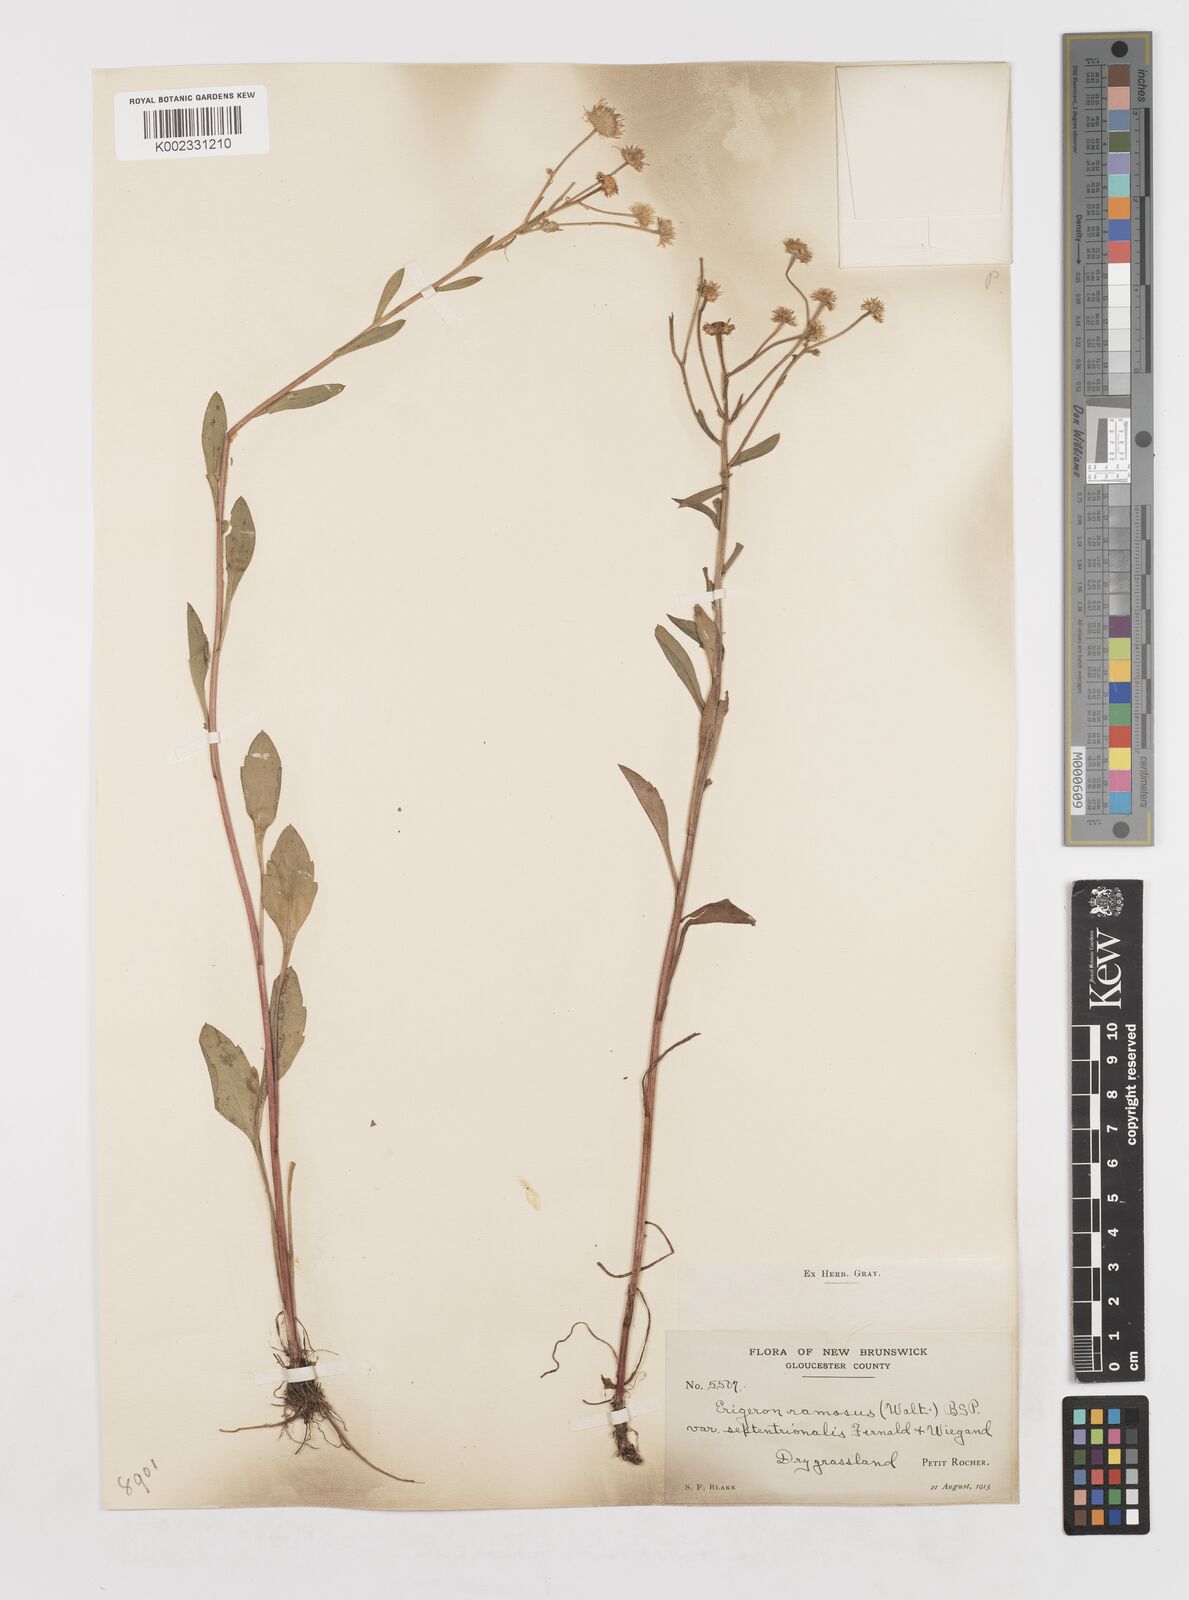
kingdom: Plantae
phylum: Tracheophyta
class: Magnoliopsida
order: Asterales
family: Asteraceae
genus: Erigeron
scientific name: Erigeron annuus
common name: Tall fleabane
